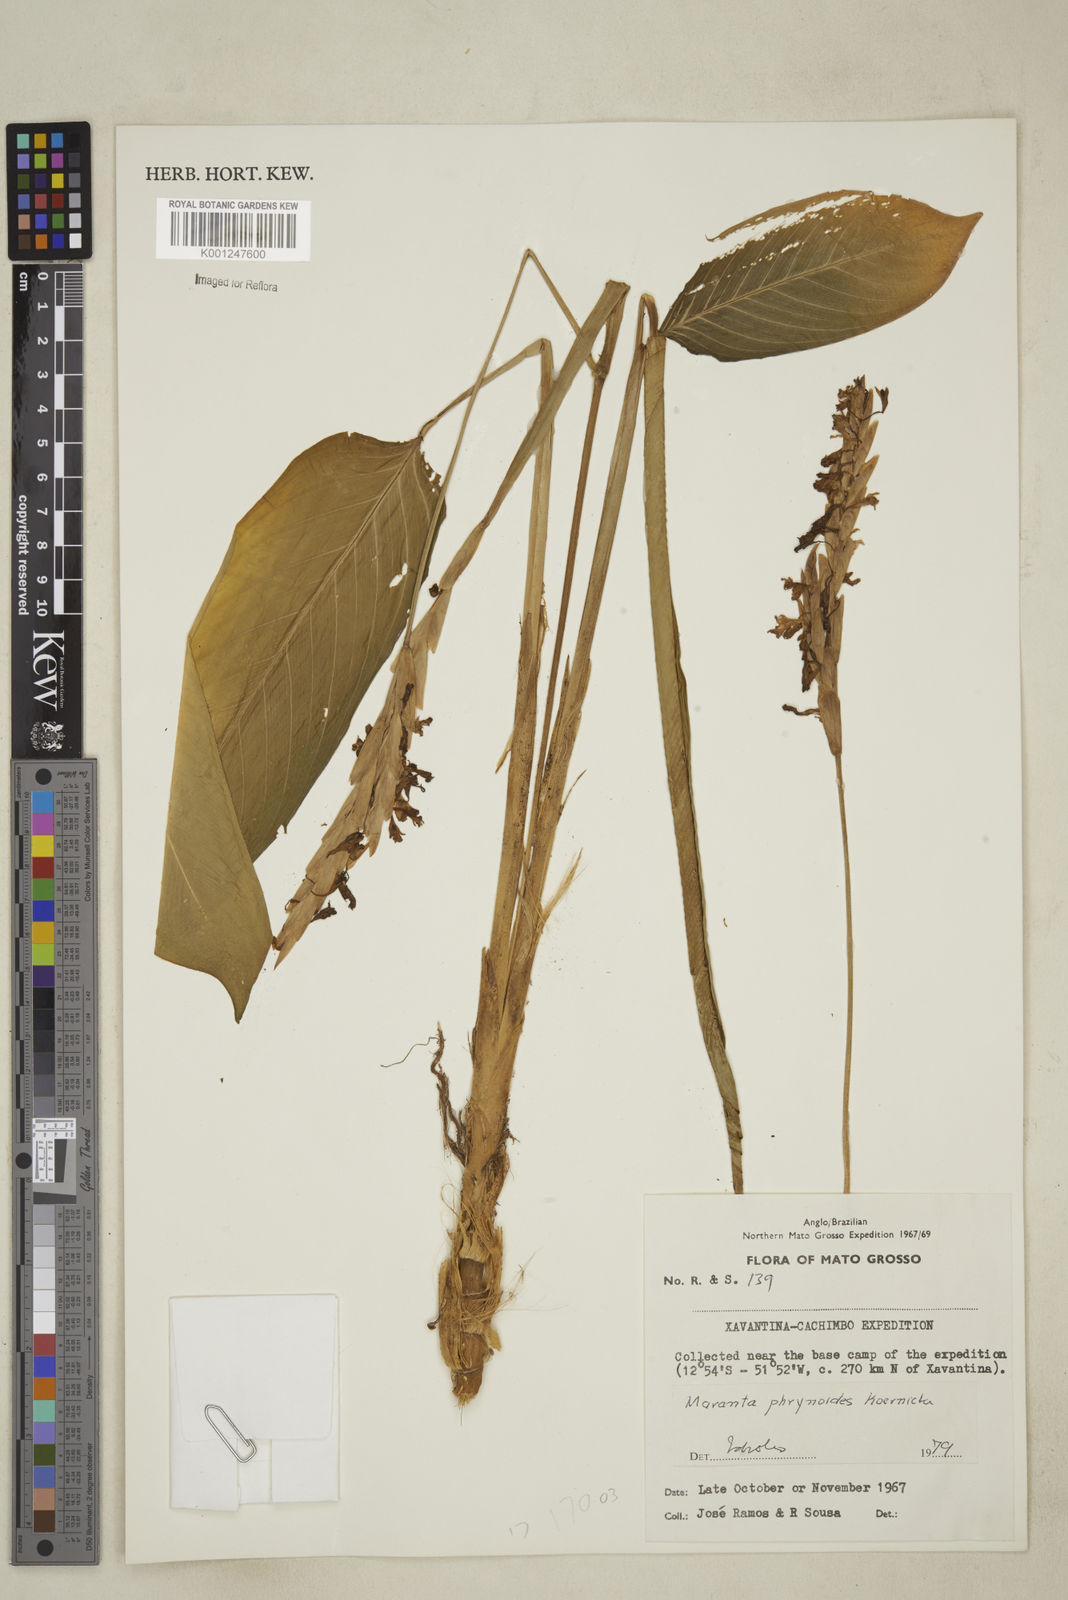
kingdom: Plantae
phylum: Tracheophyta
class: Liliopsida
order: Zingiberales
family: Marantaceae
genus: Maranta
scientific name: Maranta phrynioides
